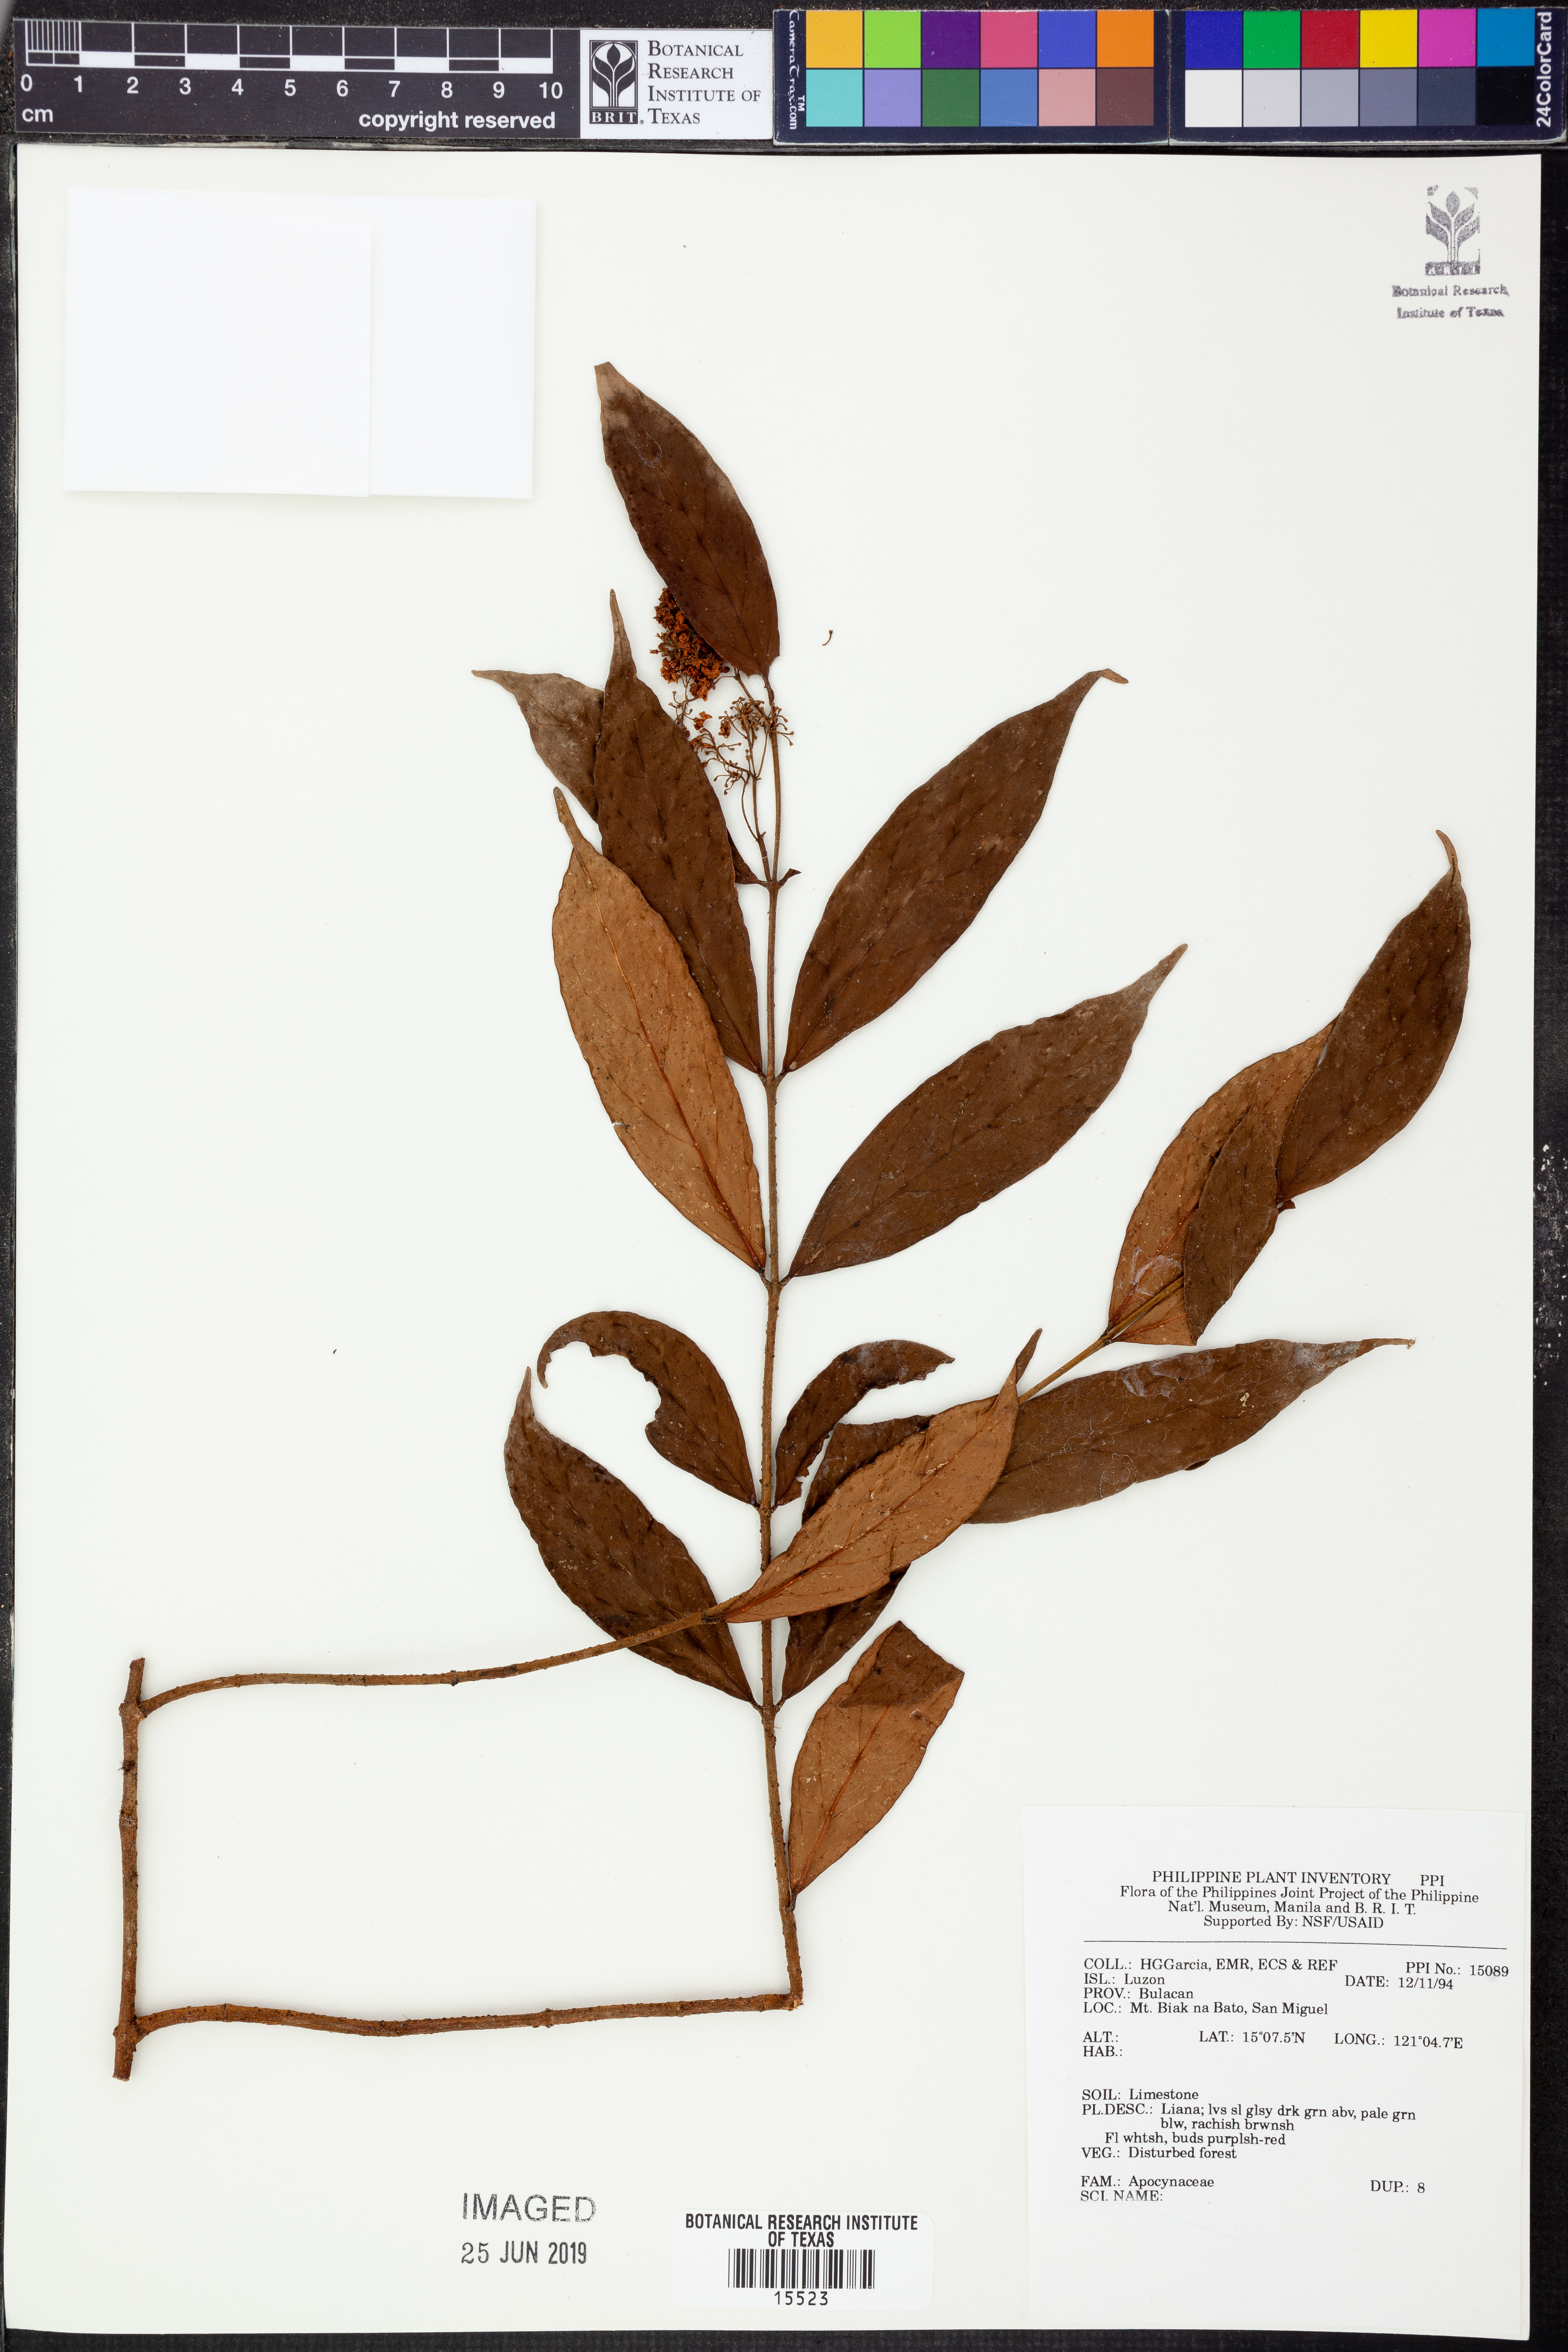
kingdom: Plantae
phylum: Tracheophyta
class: Magnoliopsida
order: Gentianales
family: Apocynaceae
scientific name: Apocynaceae
